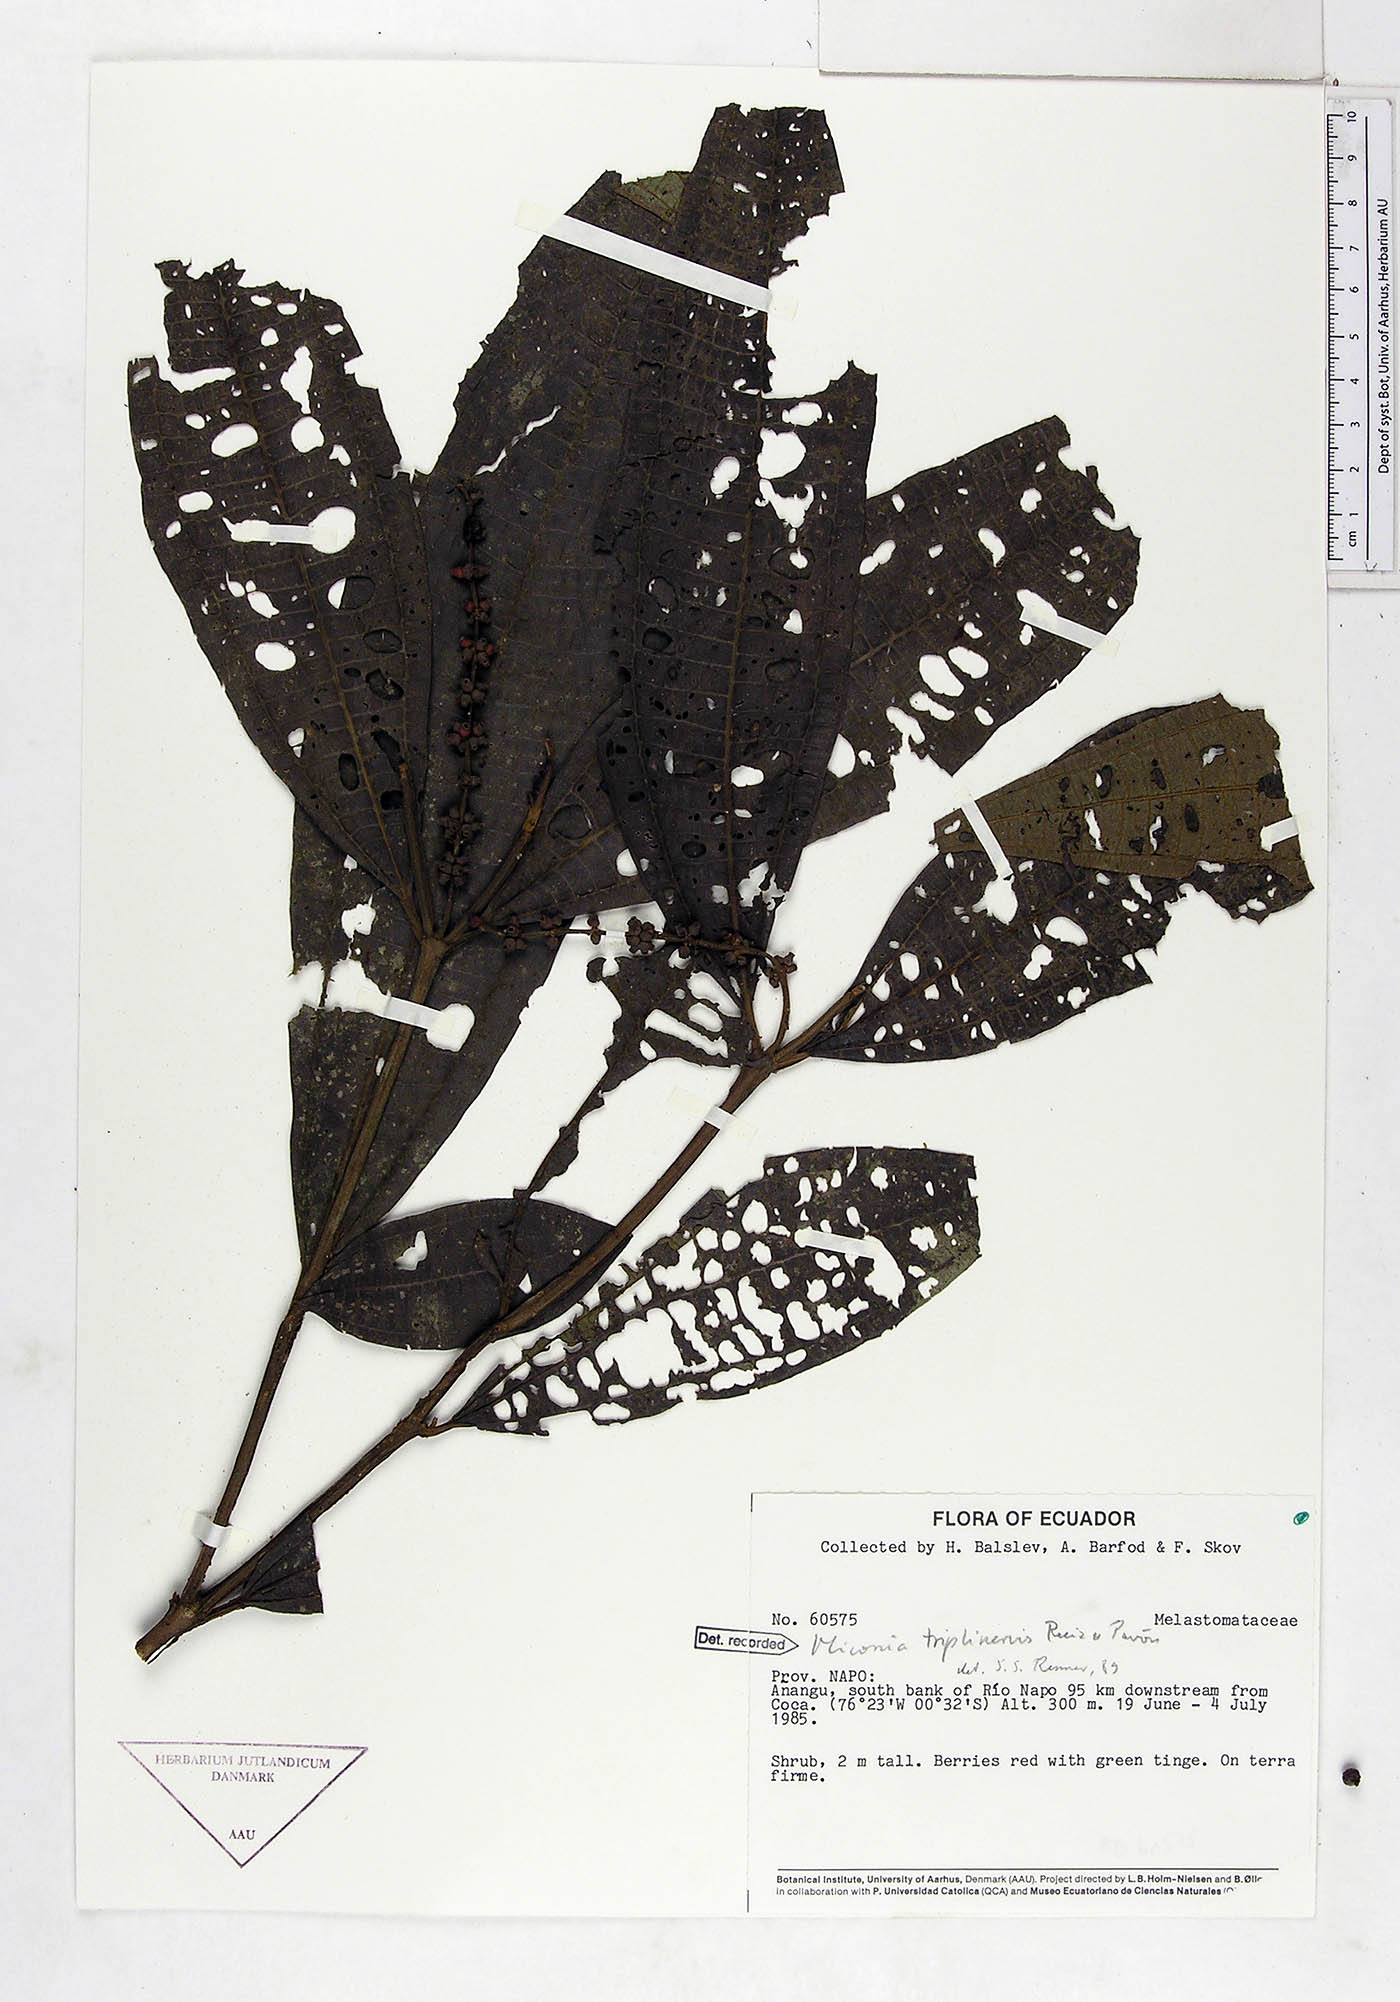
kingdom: Plantae
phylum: Tracheophyta
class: Magnoliopsida
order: Myrtales
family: Melastomataceae
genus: Miconia
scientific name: Miconia triplinervis
